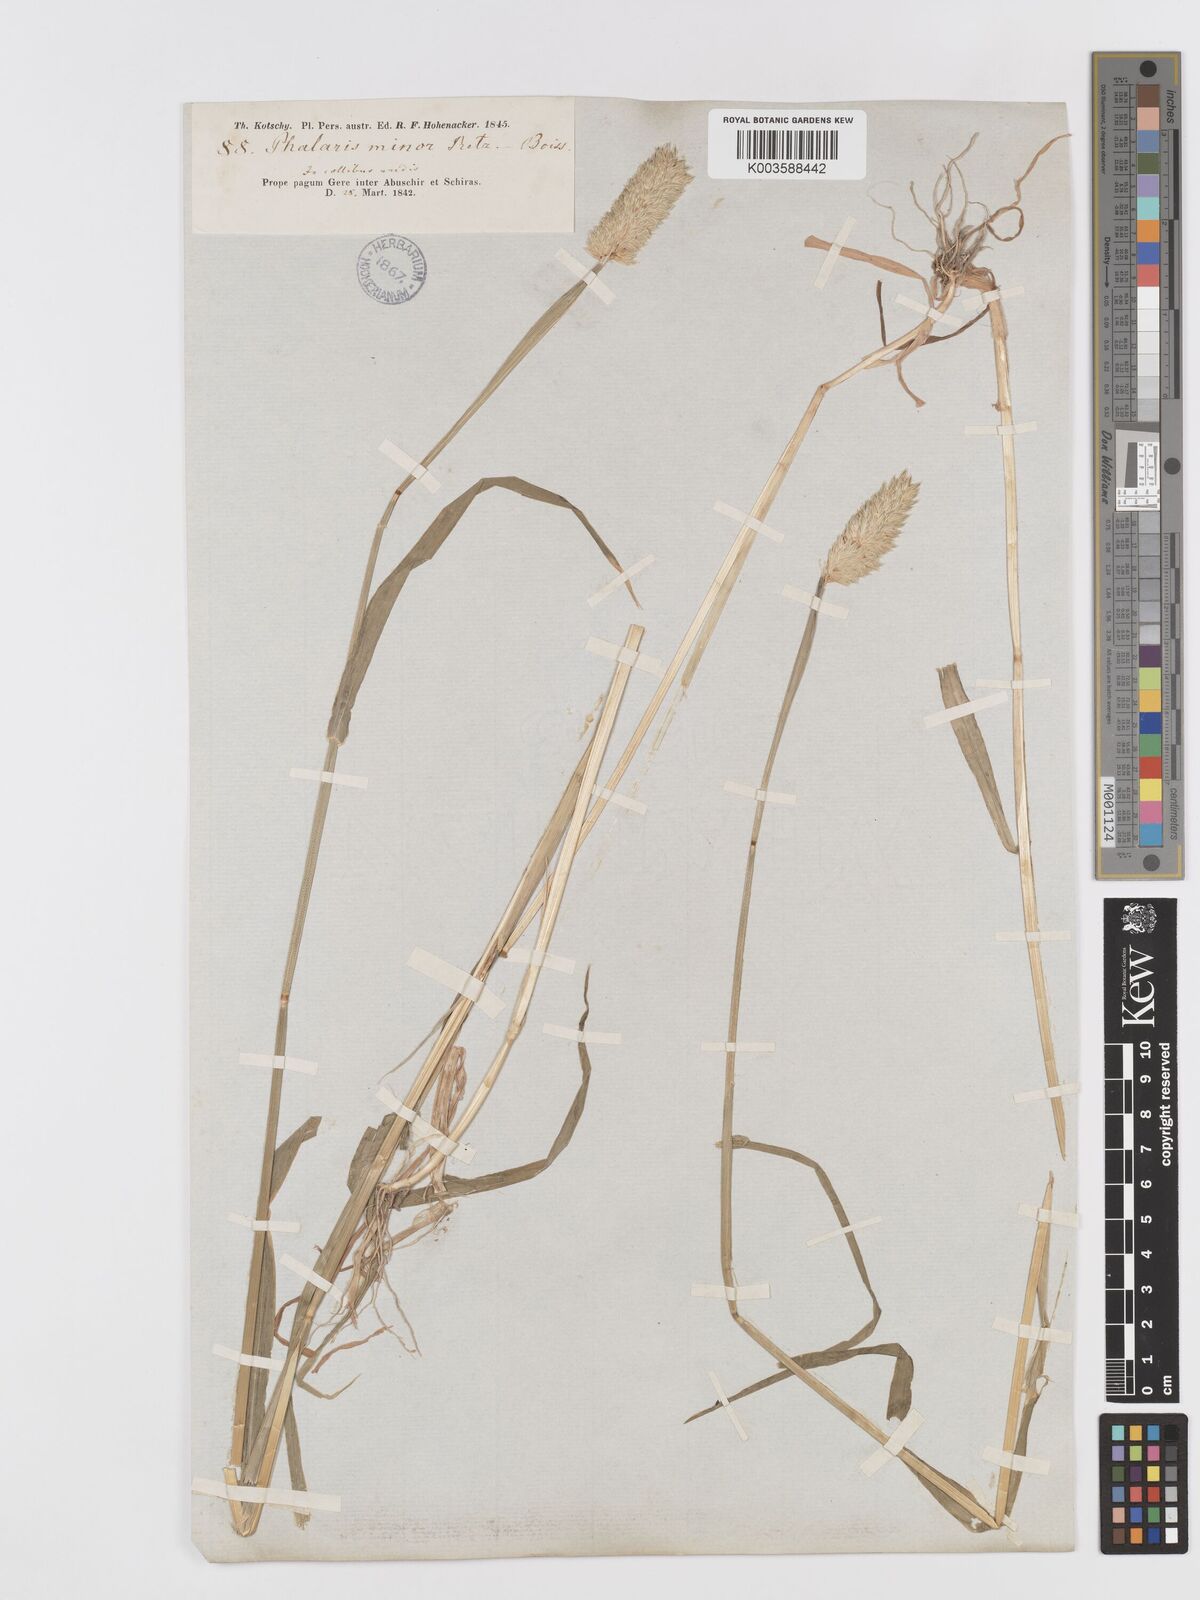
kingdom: Plantae
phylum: Tracheophyta
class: Liliopsida
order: Poales
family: Poaceae
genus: Phalaris
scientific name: Phalaris minor
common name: Littleseed canarygrass
